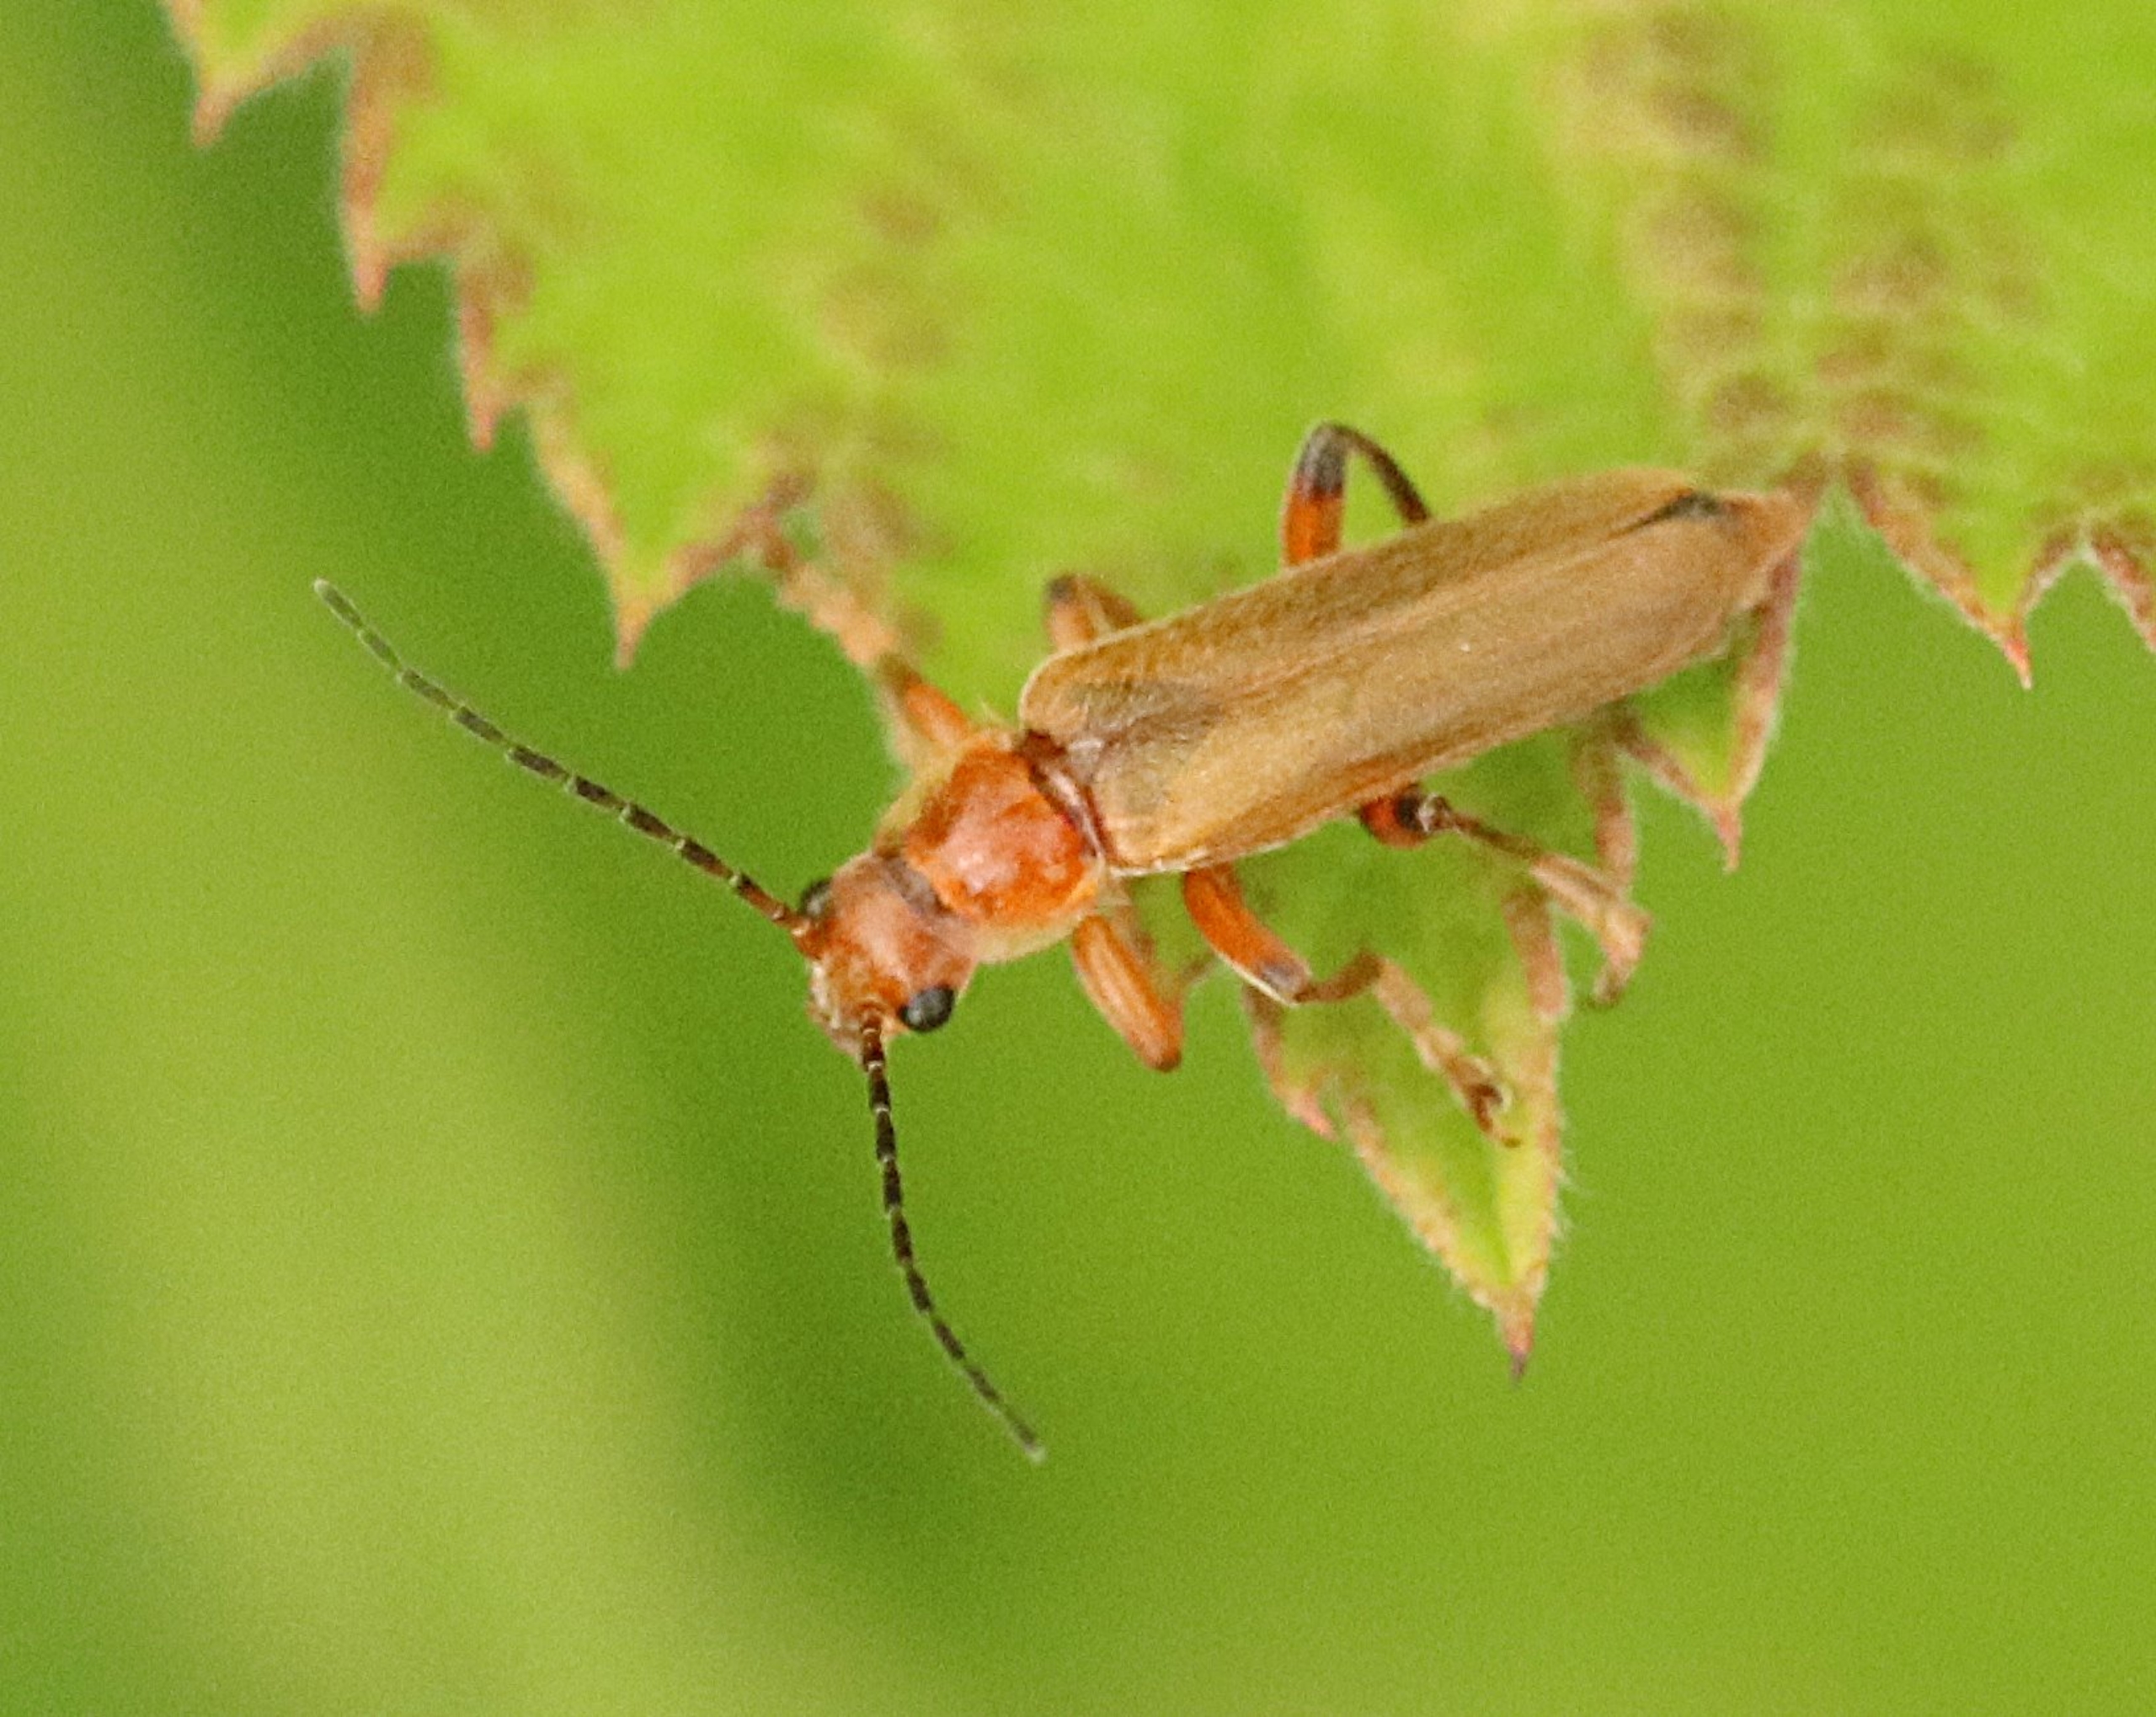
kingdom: Animalia
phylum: Arthropoda
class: Insecta
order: Coleoptera
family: Cantharidae
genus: Cantharis
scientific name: Cantharis livida
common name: Gul blødvinge
